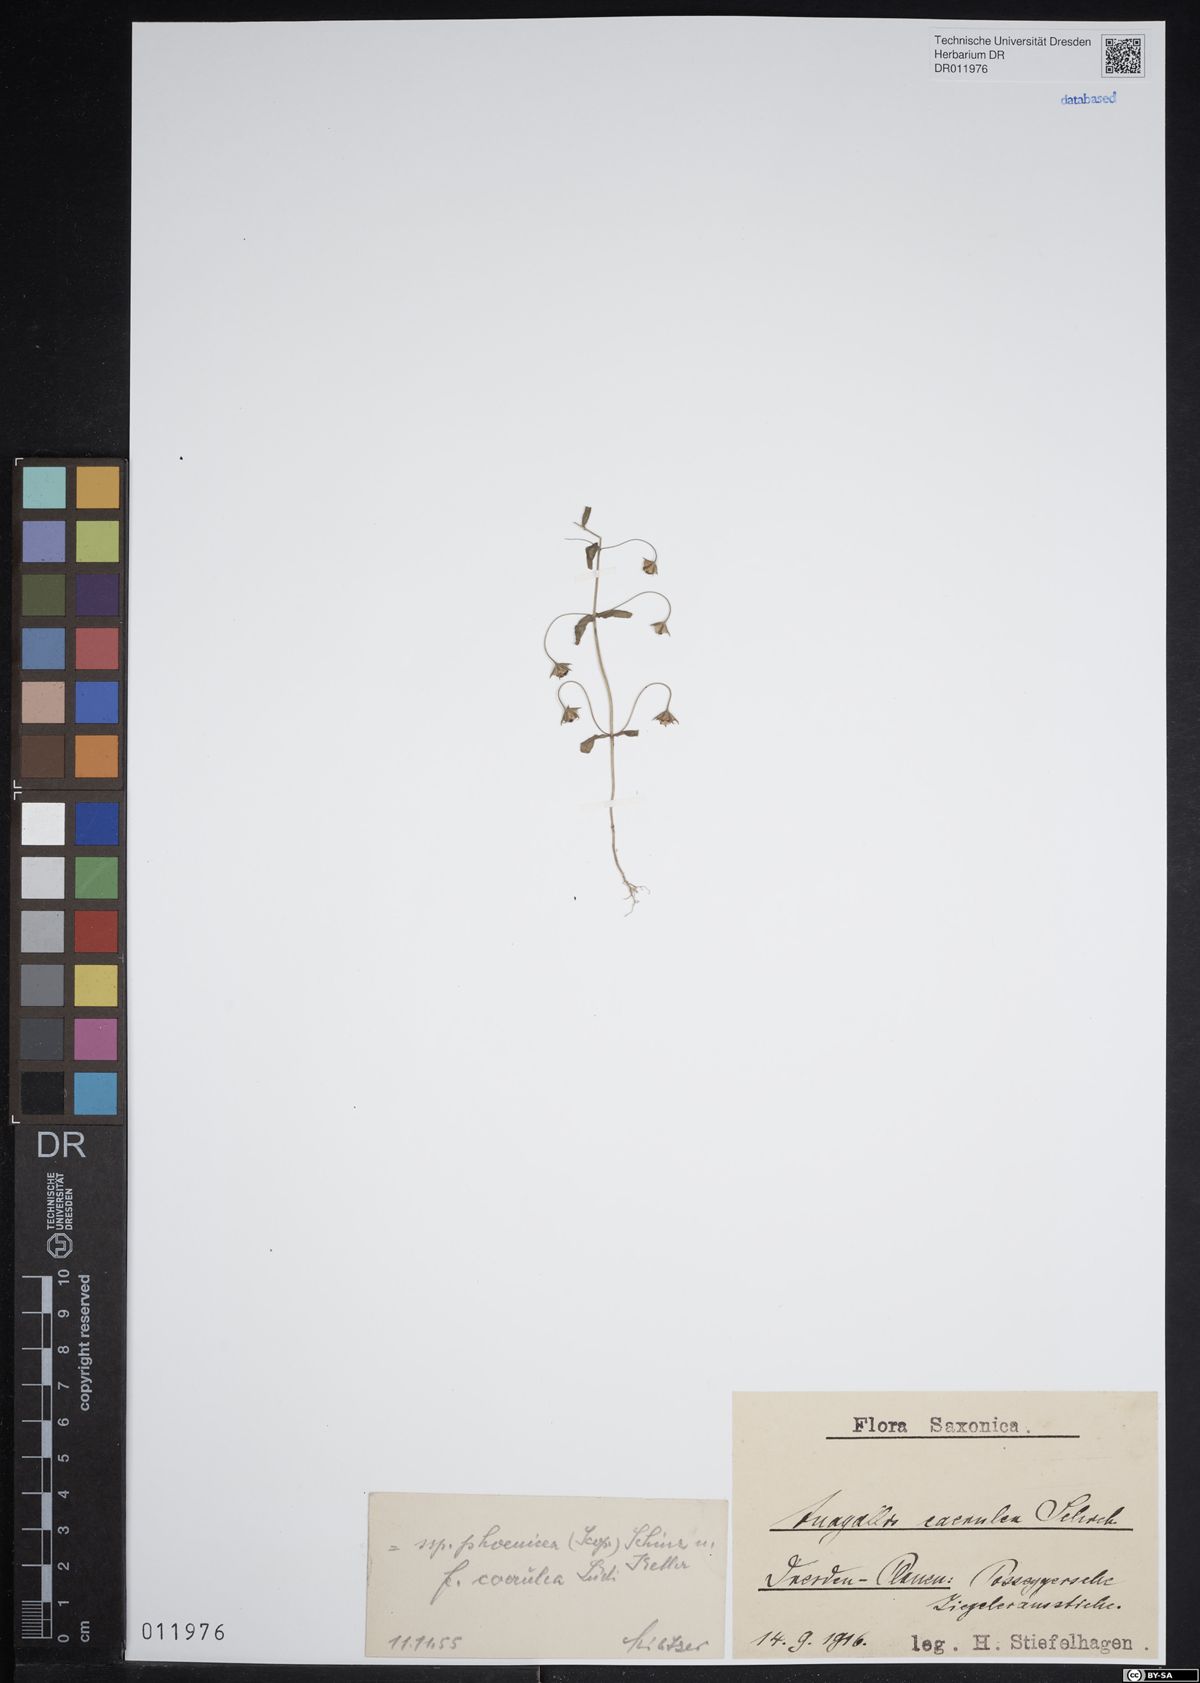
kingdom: Plantae
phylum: Tracheophyta
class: Magnoliopsida
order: Ericales
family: Primulaceae
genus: Lysimachia
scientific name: Lysimachia arvensis
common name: Scarlet pimpernel
